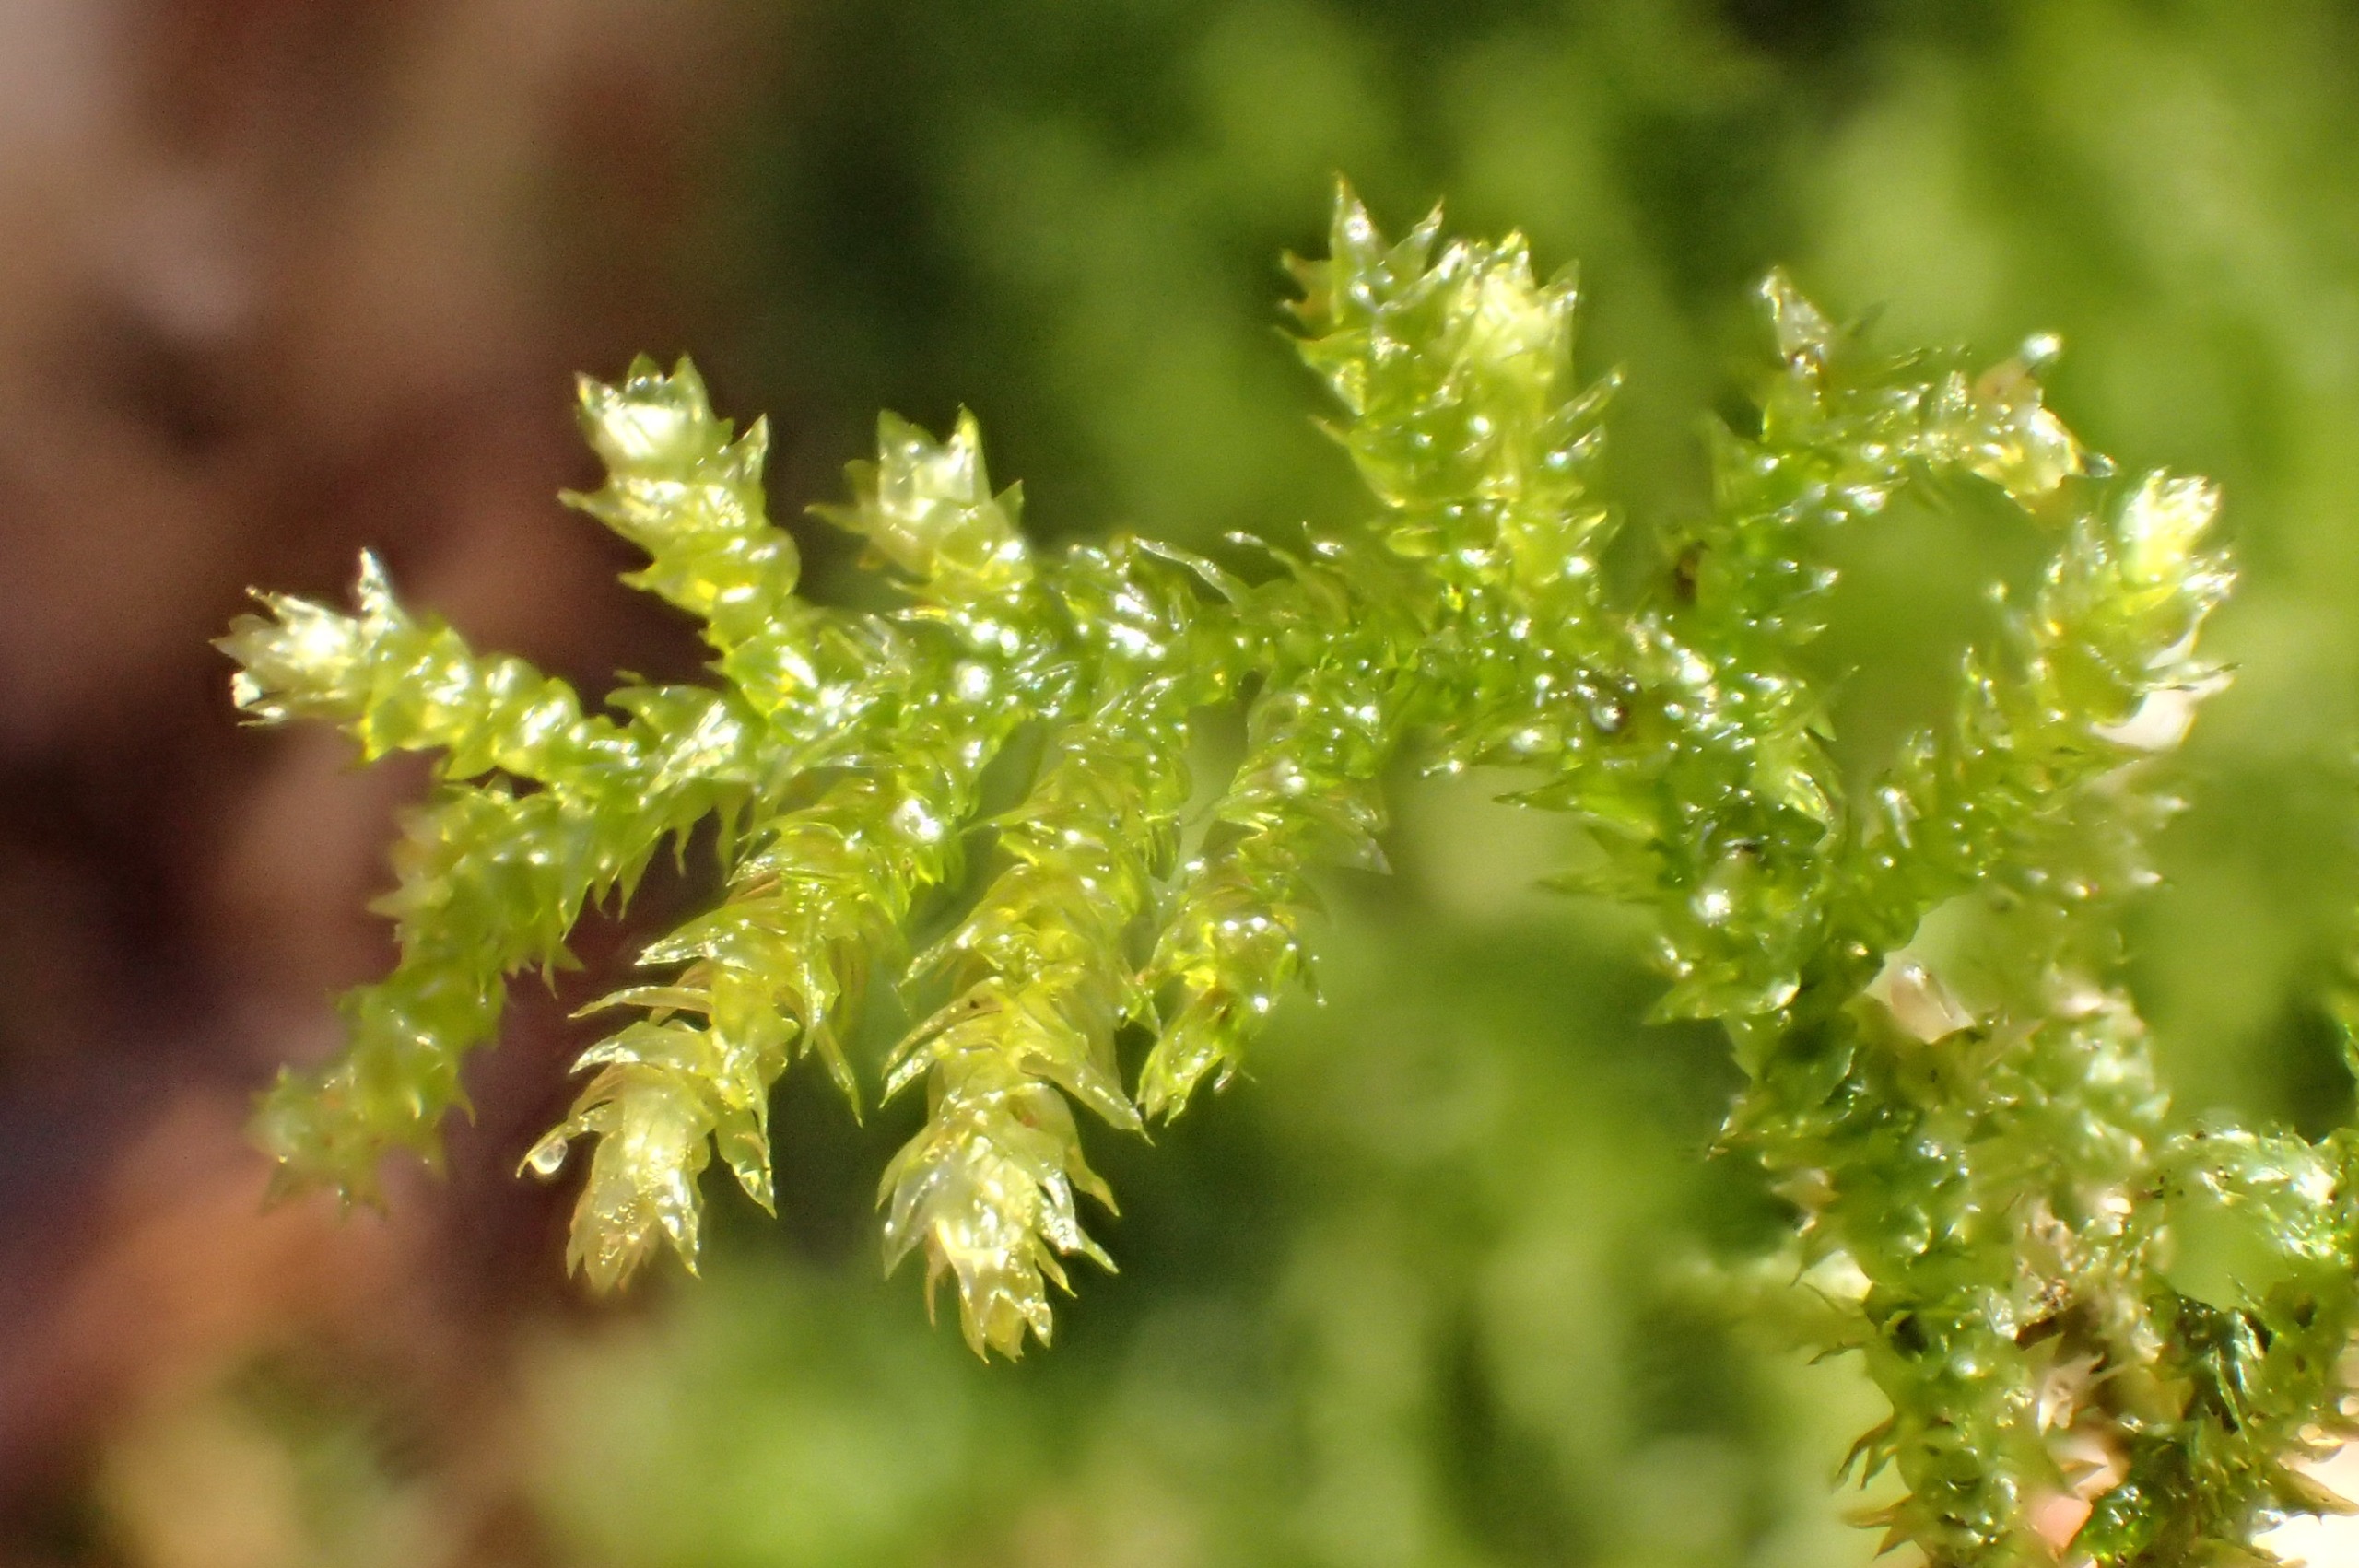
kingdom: Plantae
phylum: Bryophyta
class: Bryopsida
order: Hypnales
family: Brachytheciaceae
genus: Eurhynchium
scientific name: Eurhynchium striatum
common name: Stribet næbmos
